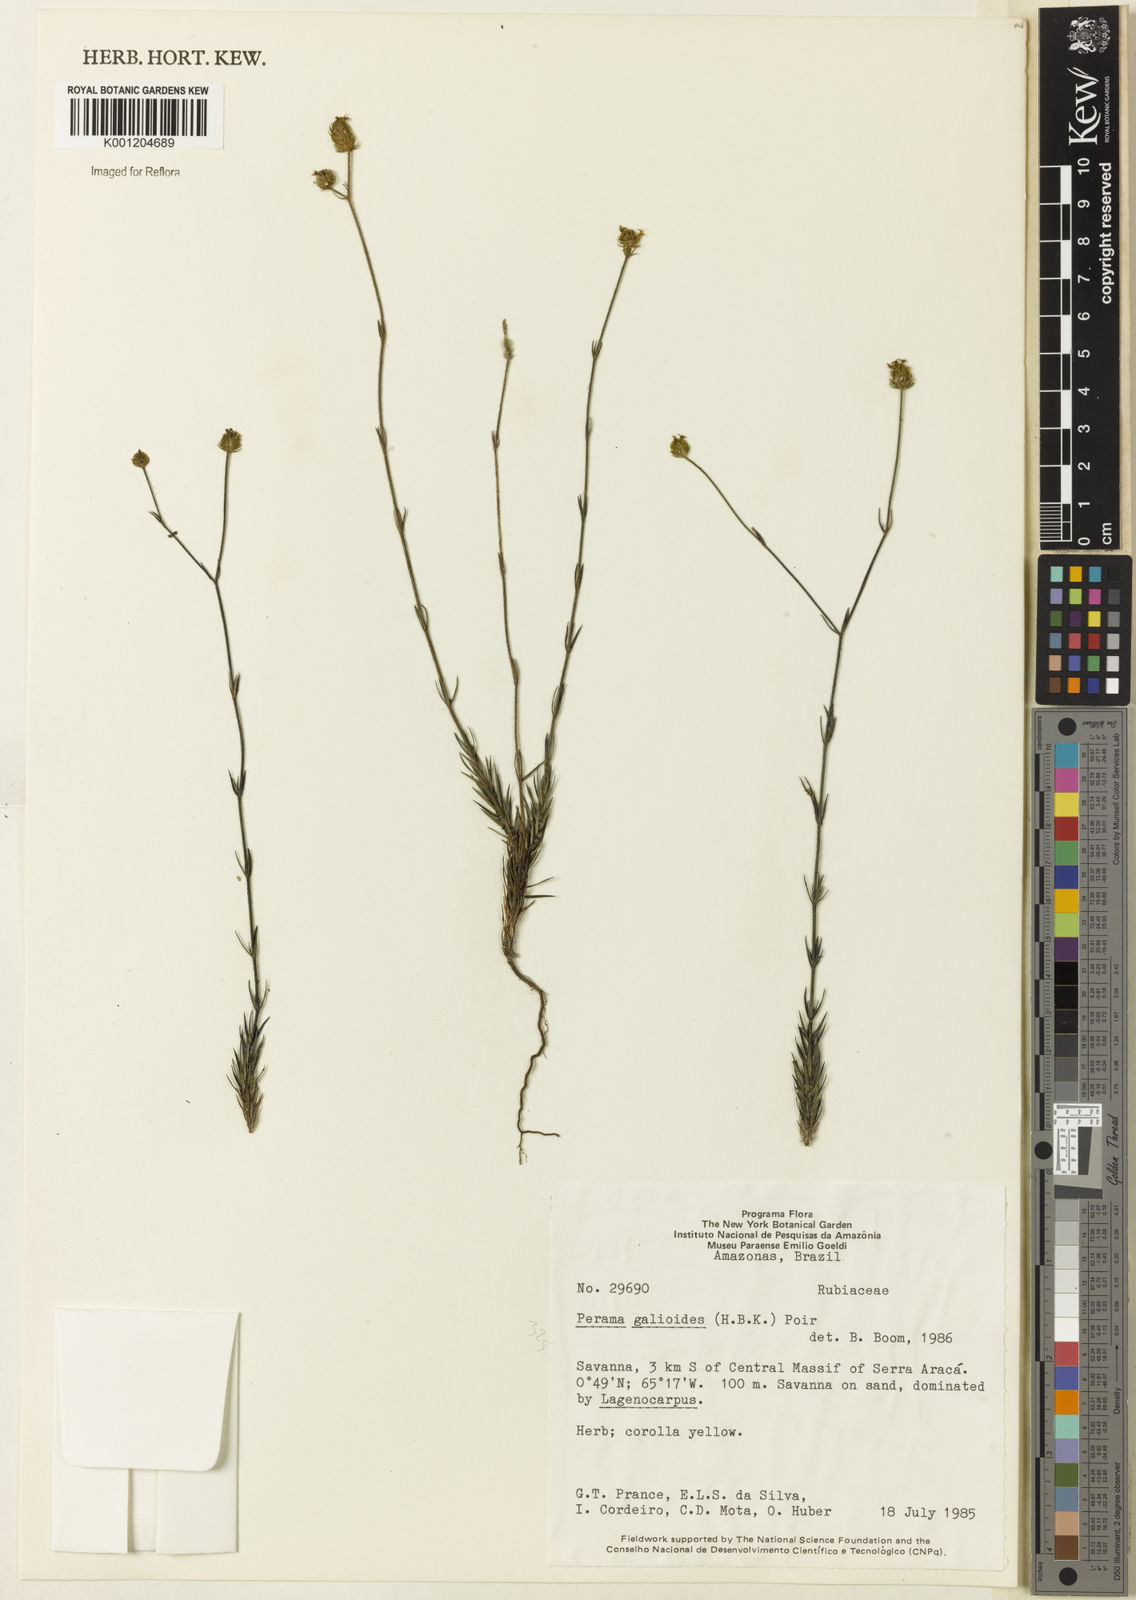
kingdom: Plantae
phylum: Tracheophyta
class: Magnoliopsida
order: Gentianales
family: Rubiaceae
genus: Perama
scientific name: Perama galioides
